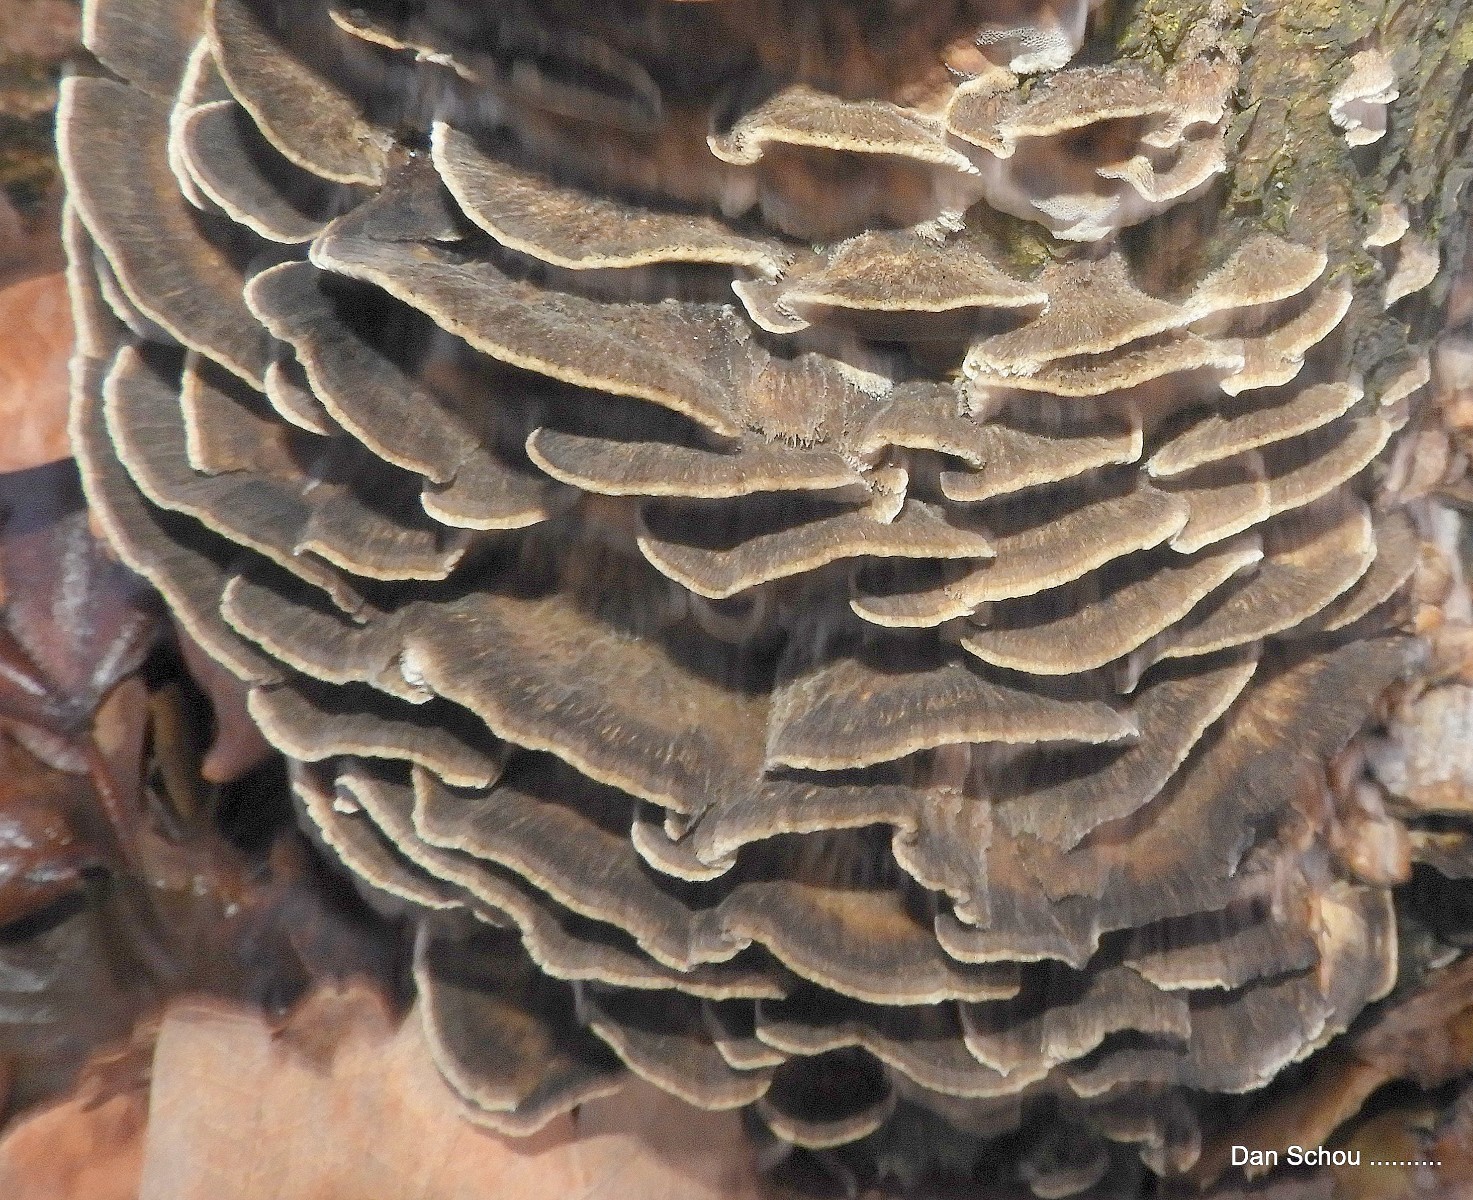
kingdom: Fungi
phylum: Basidiomycota
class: Agaricomycetes
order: Polyporales
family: Phanerochaetaceae
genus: Bjerkandera
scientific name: Bjerkandera adusta
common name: sveden sodporesvamp
